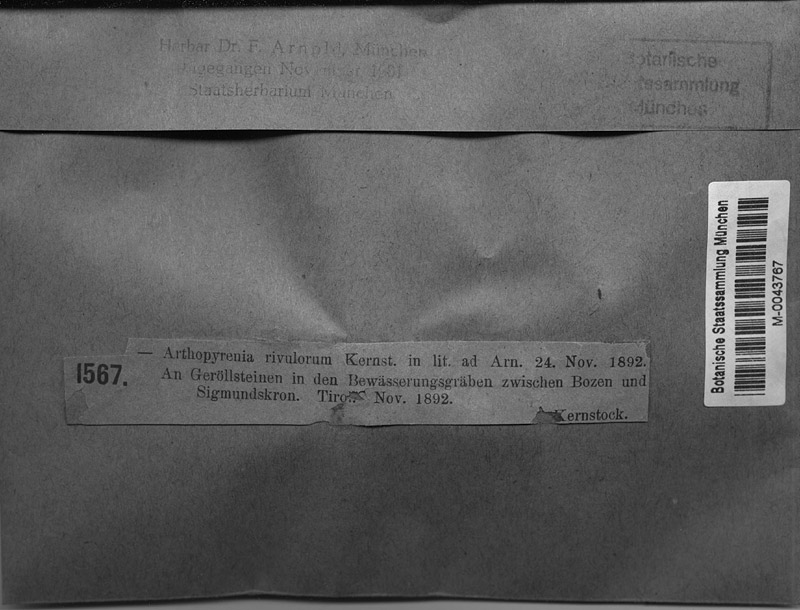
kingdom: Fungi
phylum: Ascomycota
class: Dothideomycetes
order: Mycosphaerellales
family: Mycosphaerellaceae
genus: Stigmidium
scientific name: Stigmidium rivulorum
